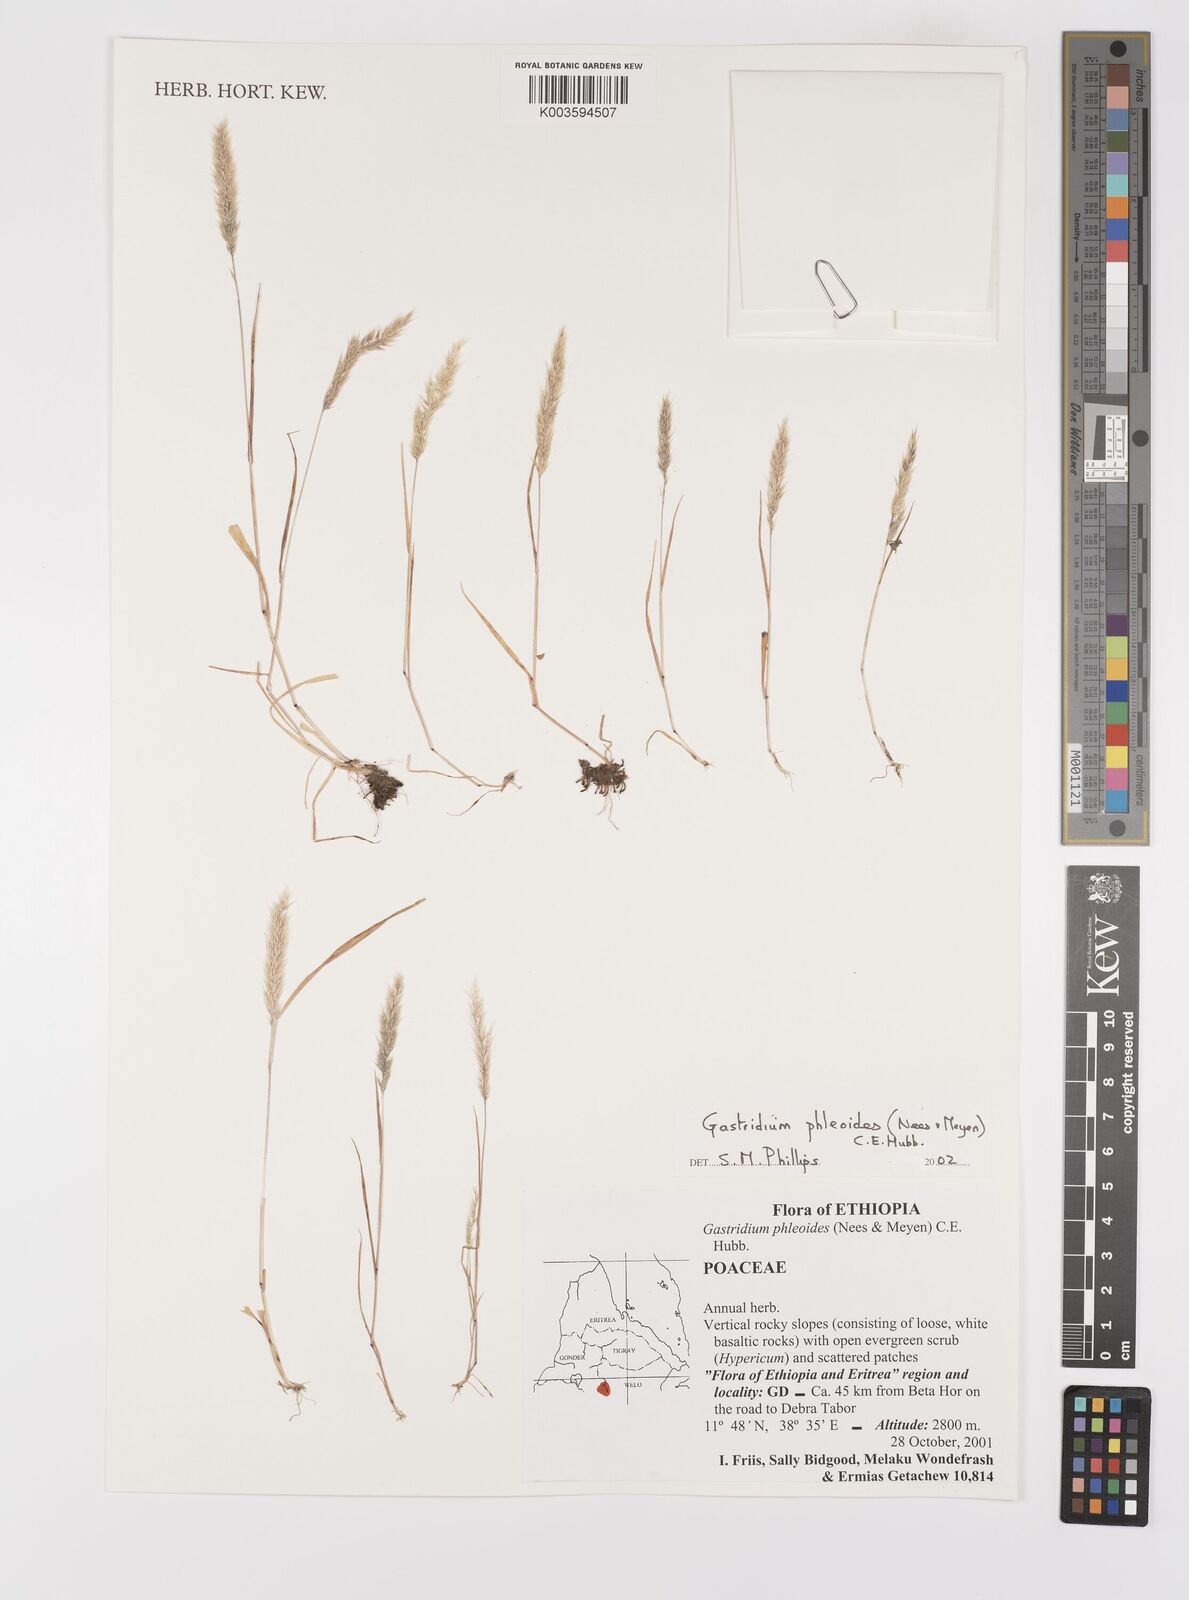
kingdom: Plantae
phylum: Tracheophyta
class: Liliopsida
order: Poales
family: Poaceae
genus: Gastridium
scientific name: Gastridium phleoides
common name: Nit grass
